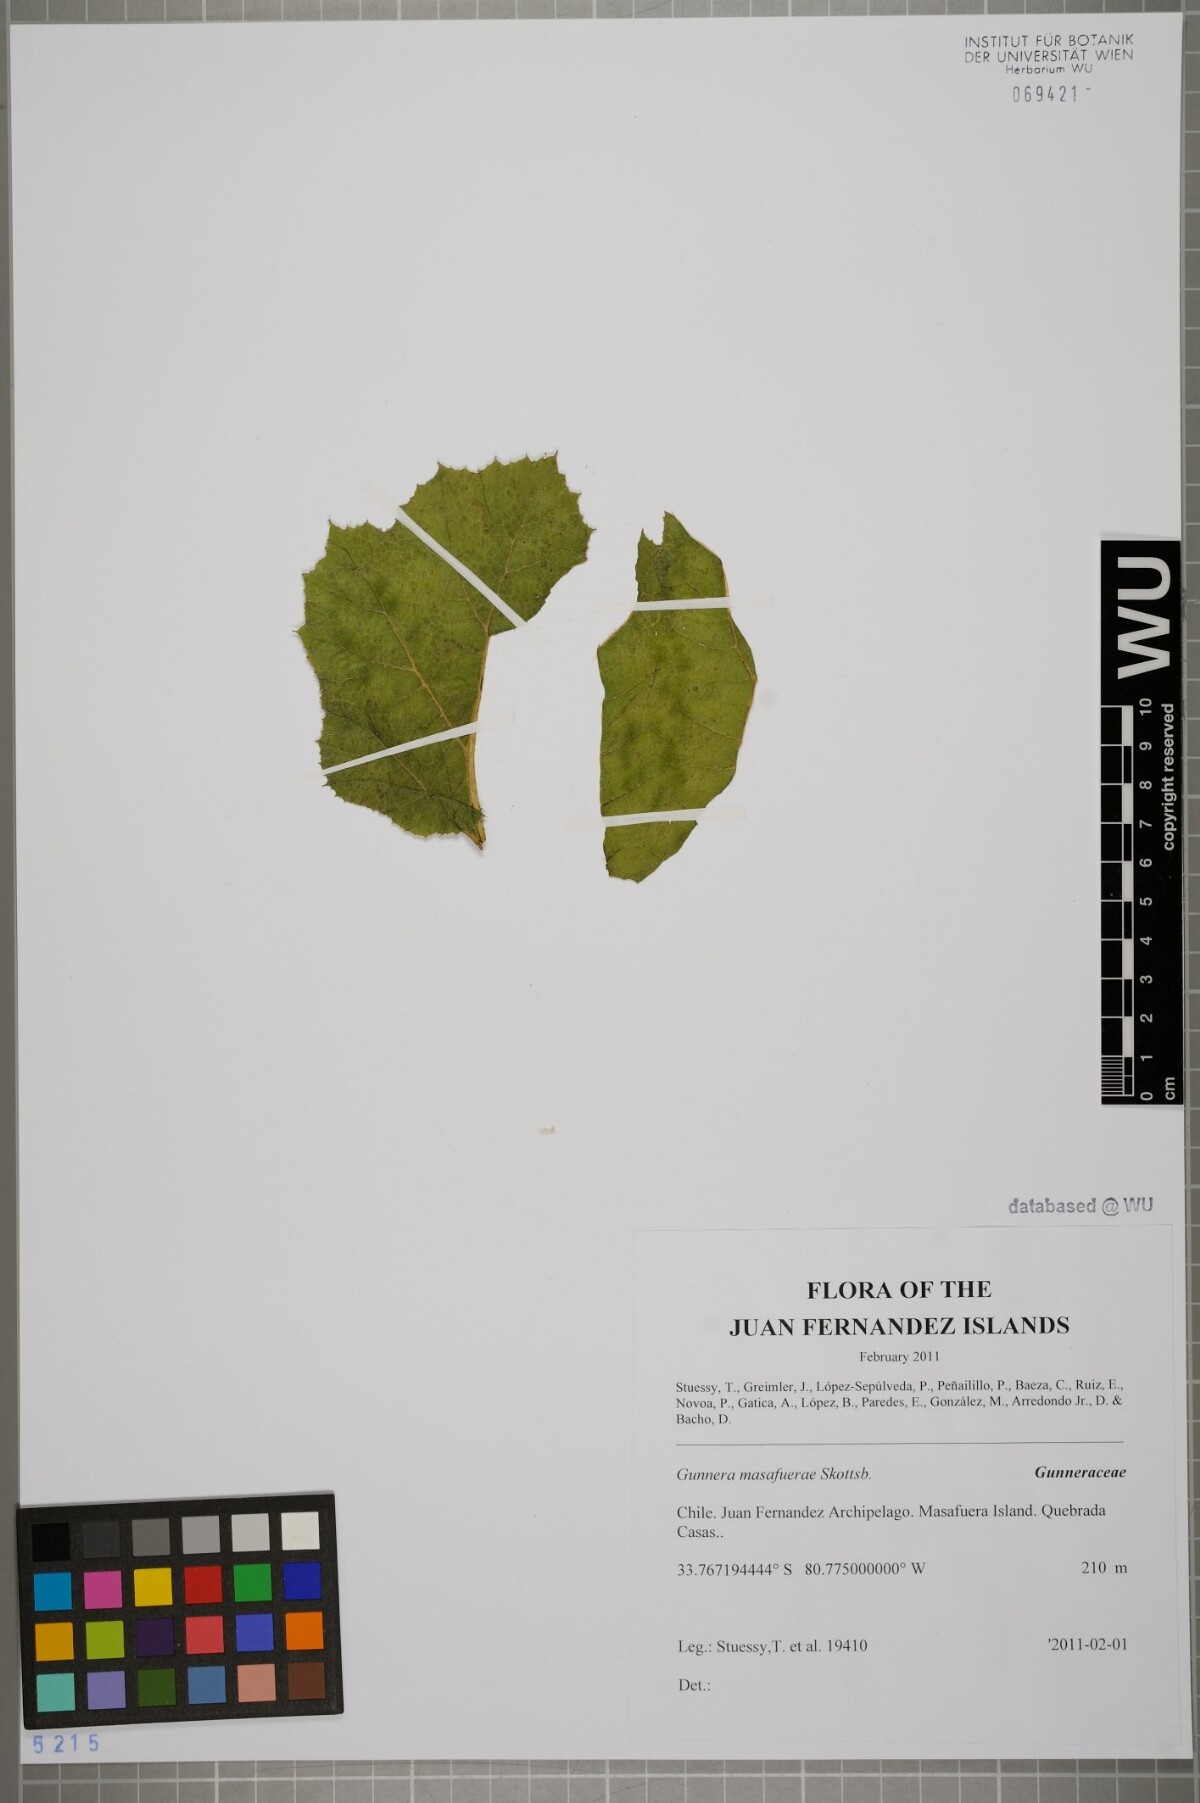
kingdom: Plantae
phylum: Tracheophyta
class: Magnoliopsida
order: Gunnerales
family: Gunneraceae
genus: Gunnera
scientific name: Gunnera masafuerae
